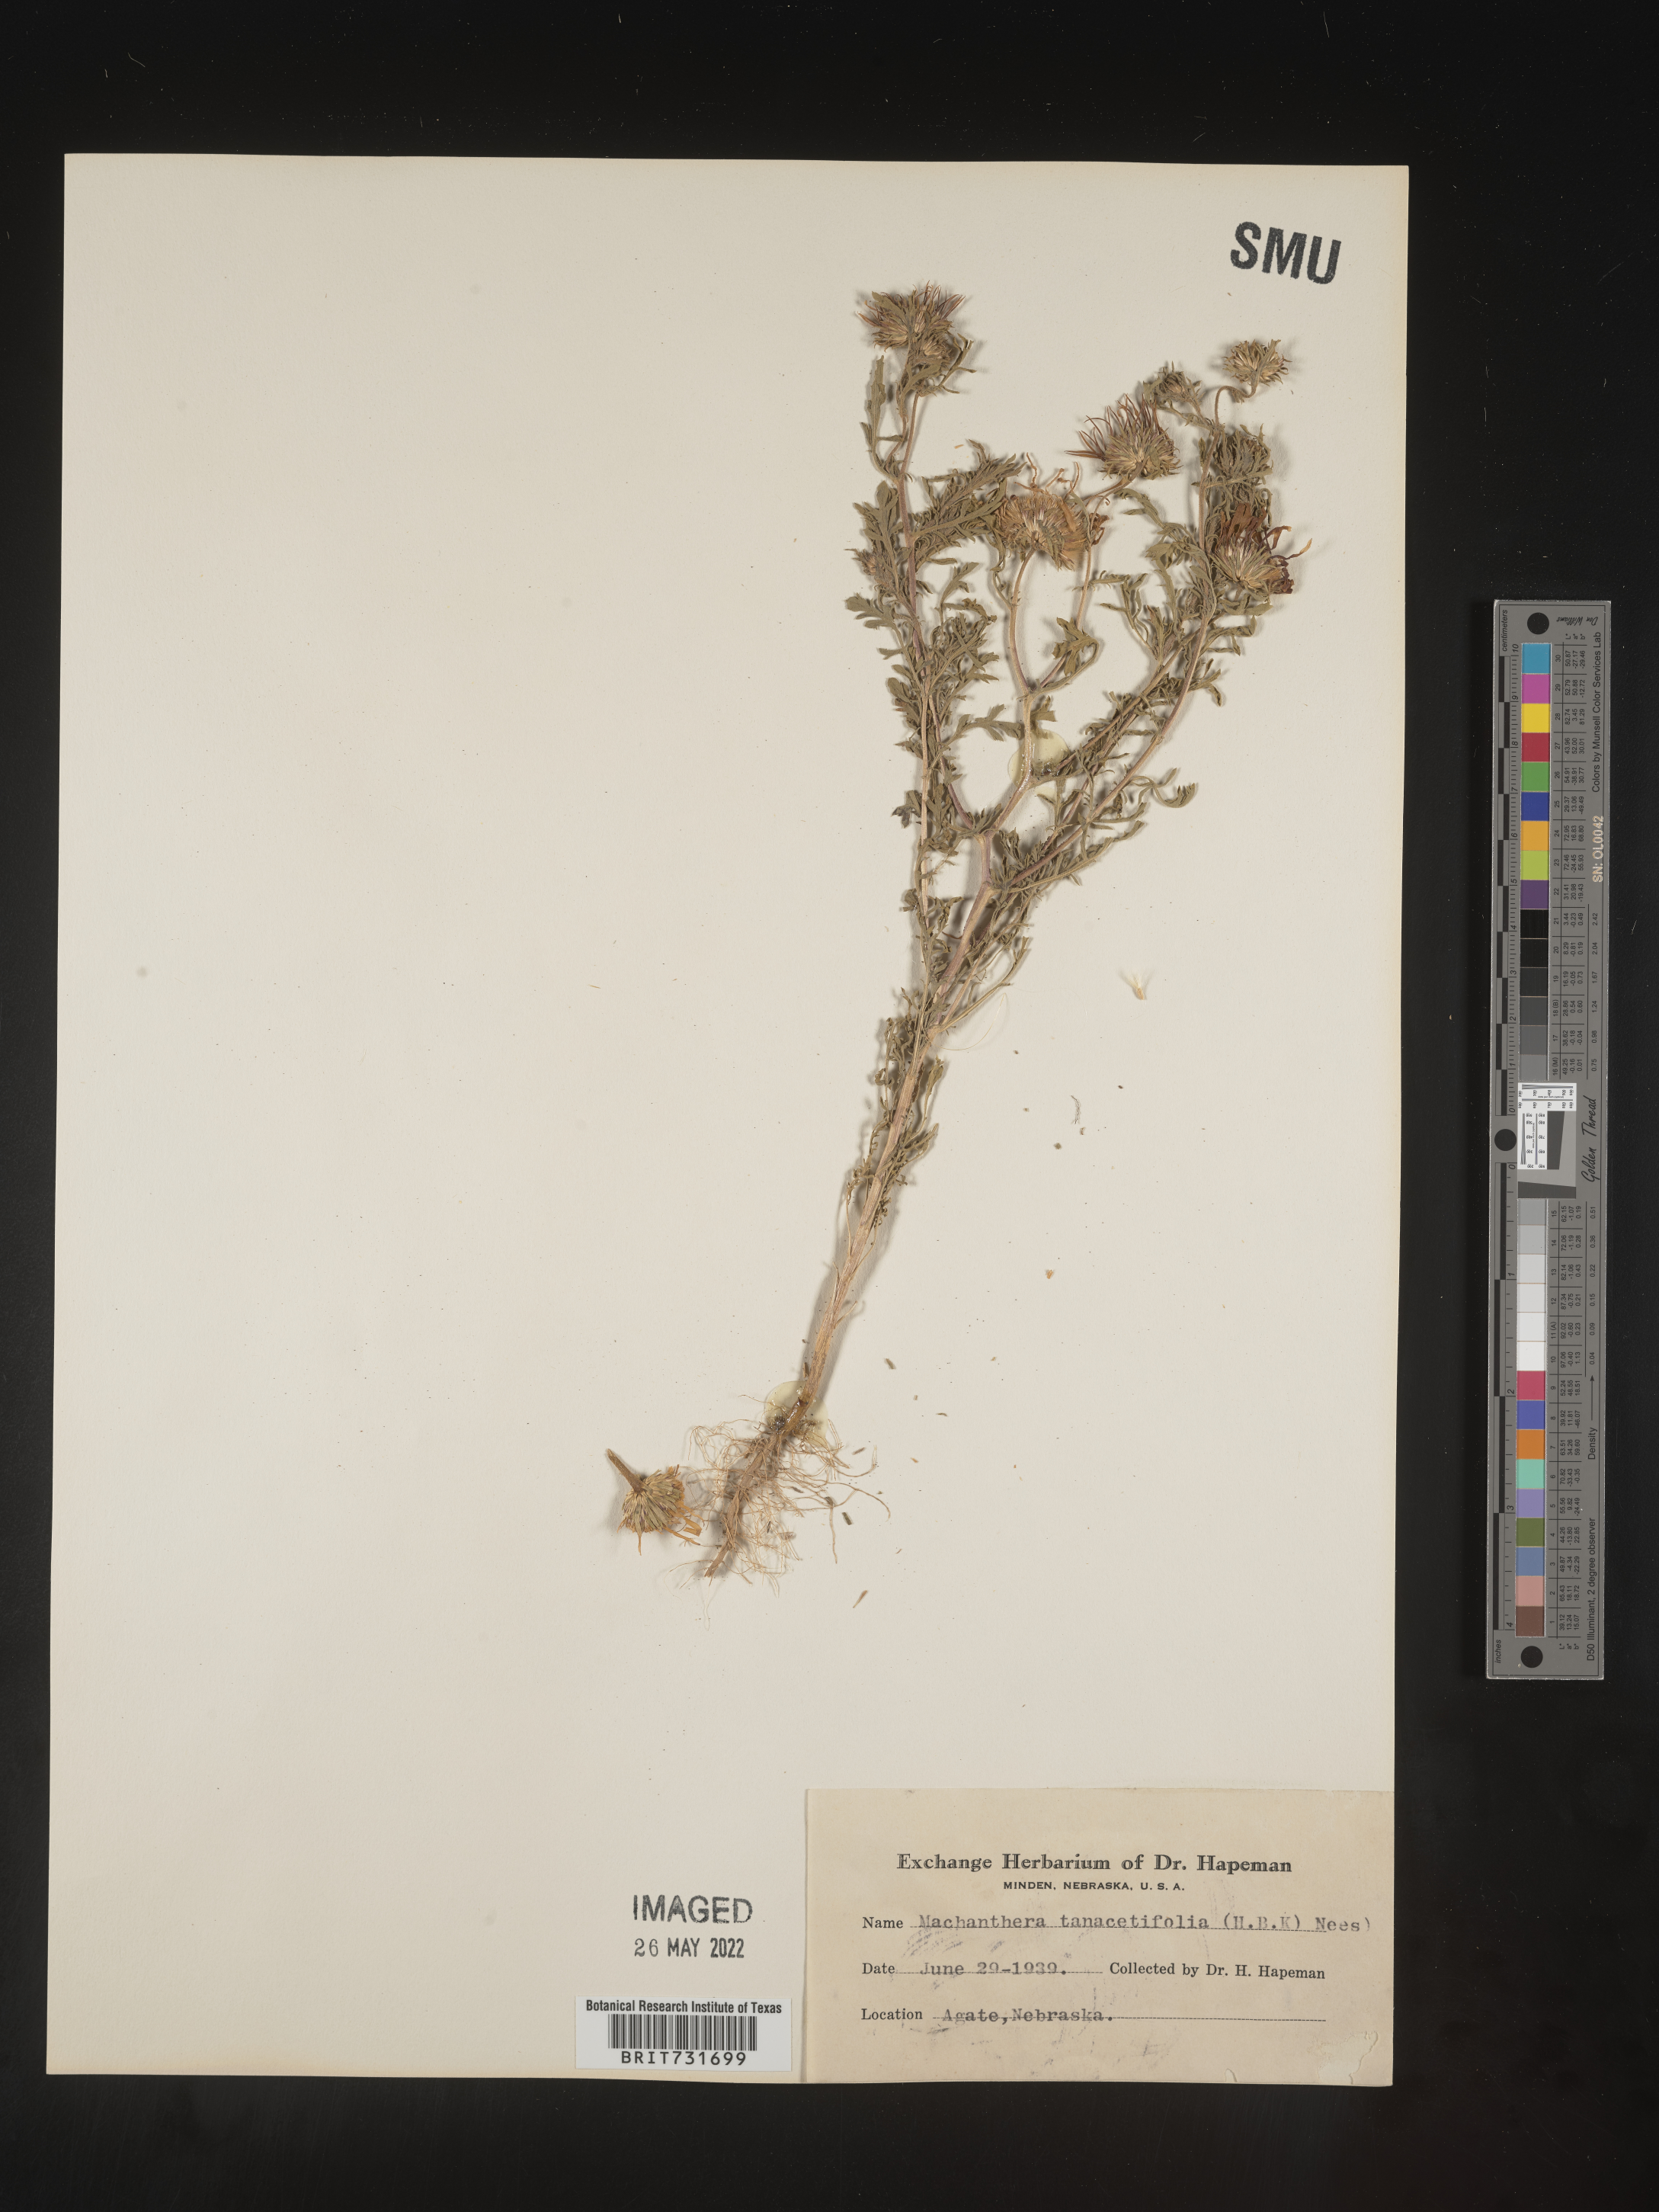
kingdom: Plantae
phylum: Tracheophyta
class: Magnoliopsida
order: Asterales
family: Asteraceae
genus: Machaeranthera
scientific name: Machaeranthera tanacetifolia
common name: Tansy-aster
